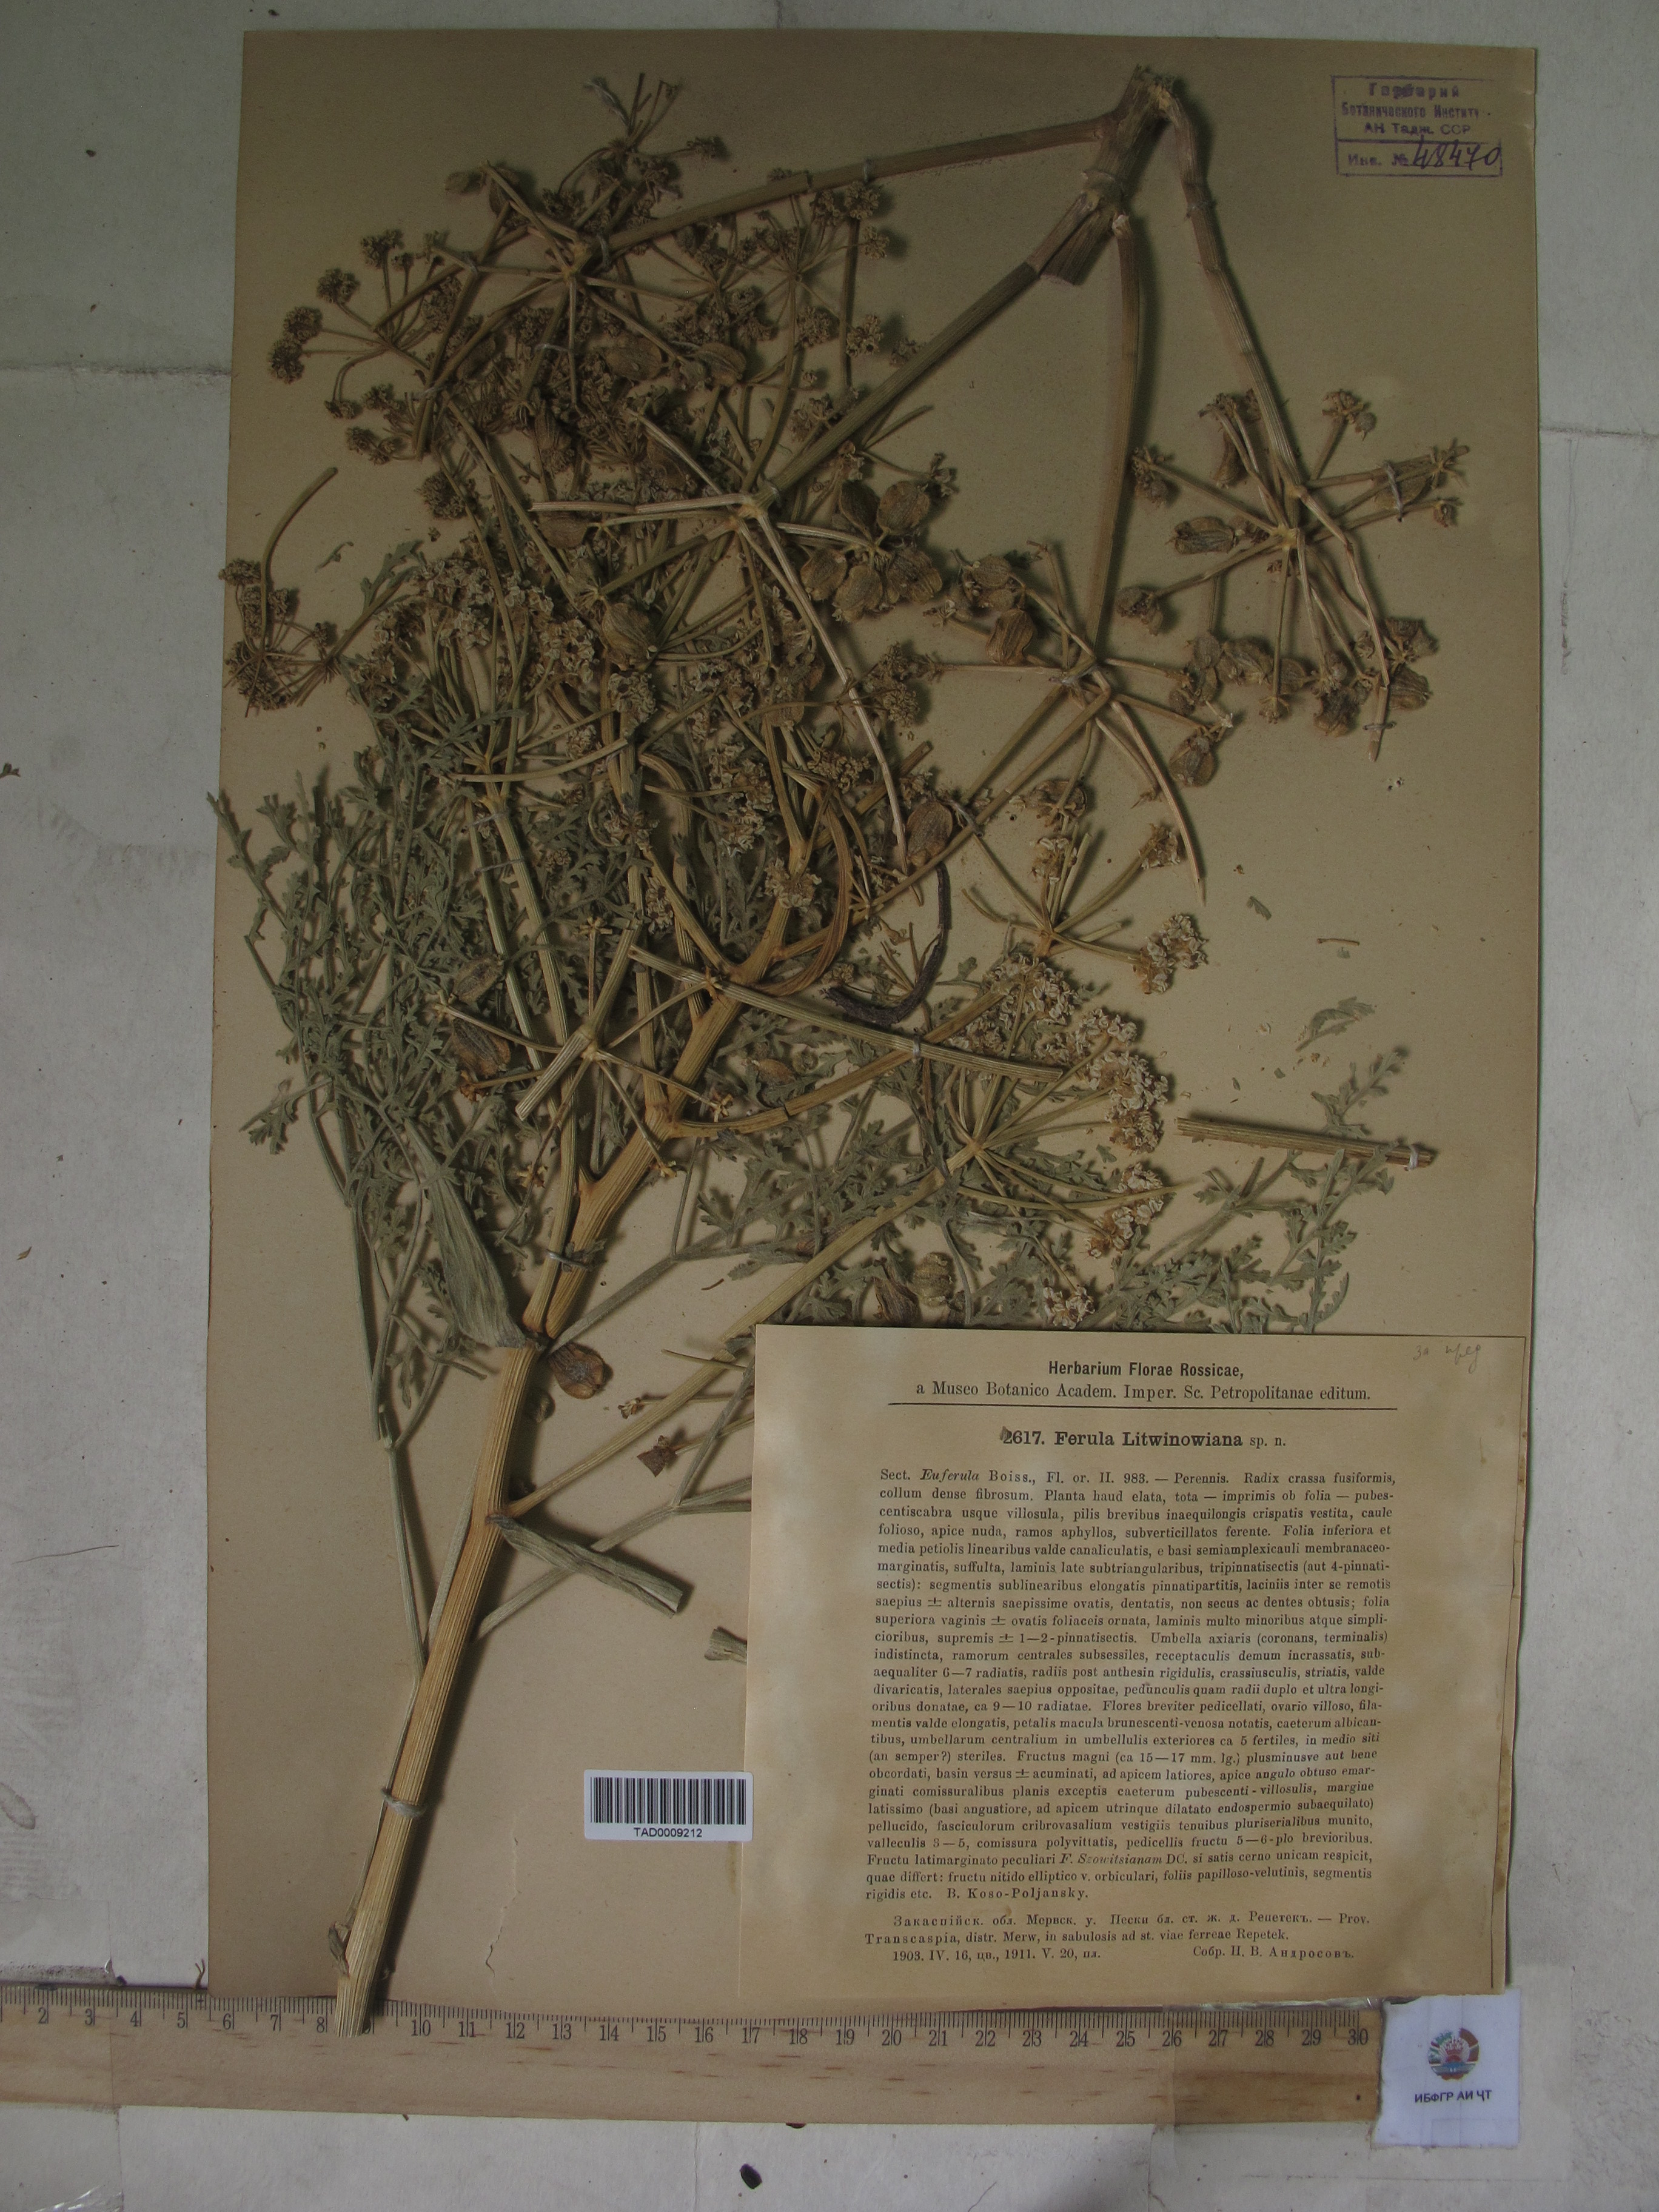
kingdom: Plantae
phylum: Tracheophyta
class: Magnoliopsida
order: Apiales
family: Apiaceae
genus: Ferula
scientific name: Ferula ovina
